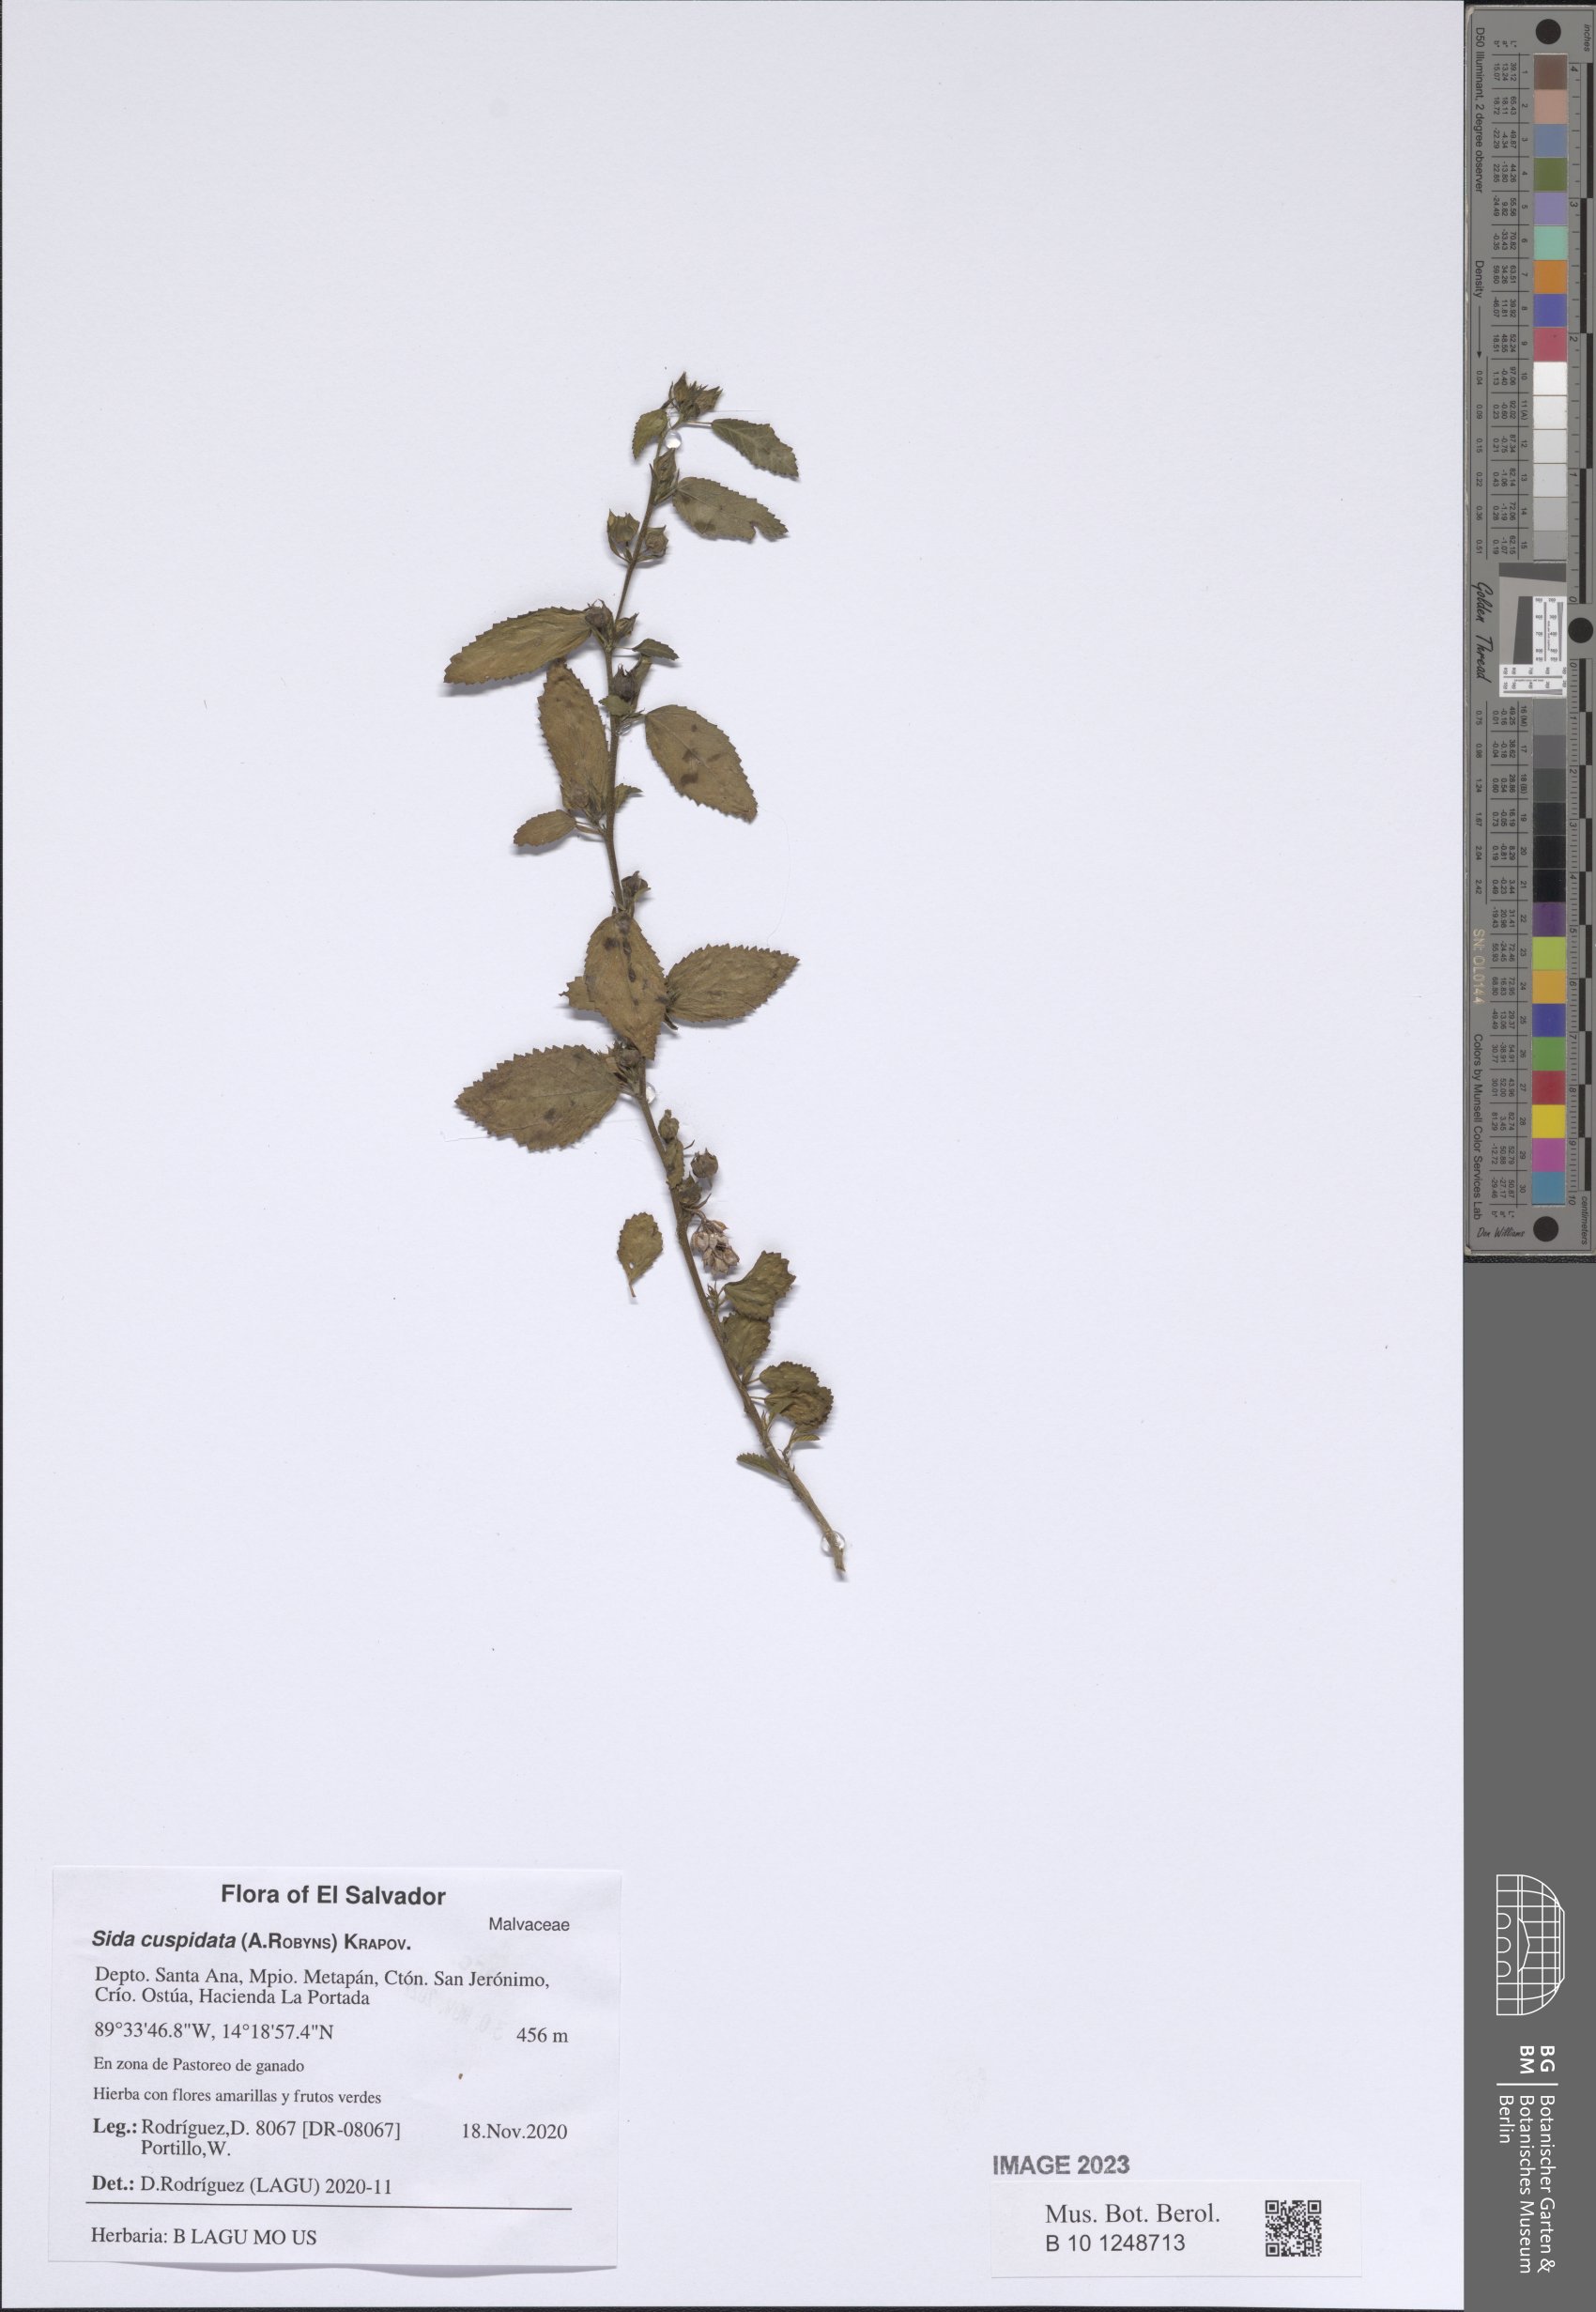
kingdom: Plantae
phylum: Tracheophyta
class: Magnoliopsida
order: Malvales
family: Malvaceae
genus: Sida
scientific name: Sida cuspidata
